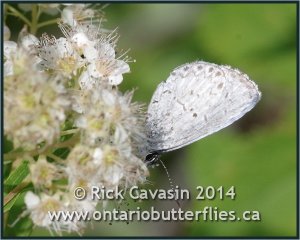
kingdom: Animalia
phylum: Arthropoda
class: Insecta
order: Lepidoptera
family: Lycaenidae
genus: Cyaniris
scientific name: Cyaniris neglecta
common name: Summer Azure
